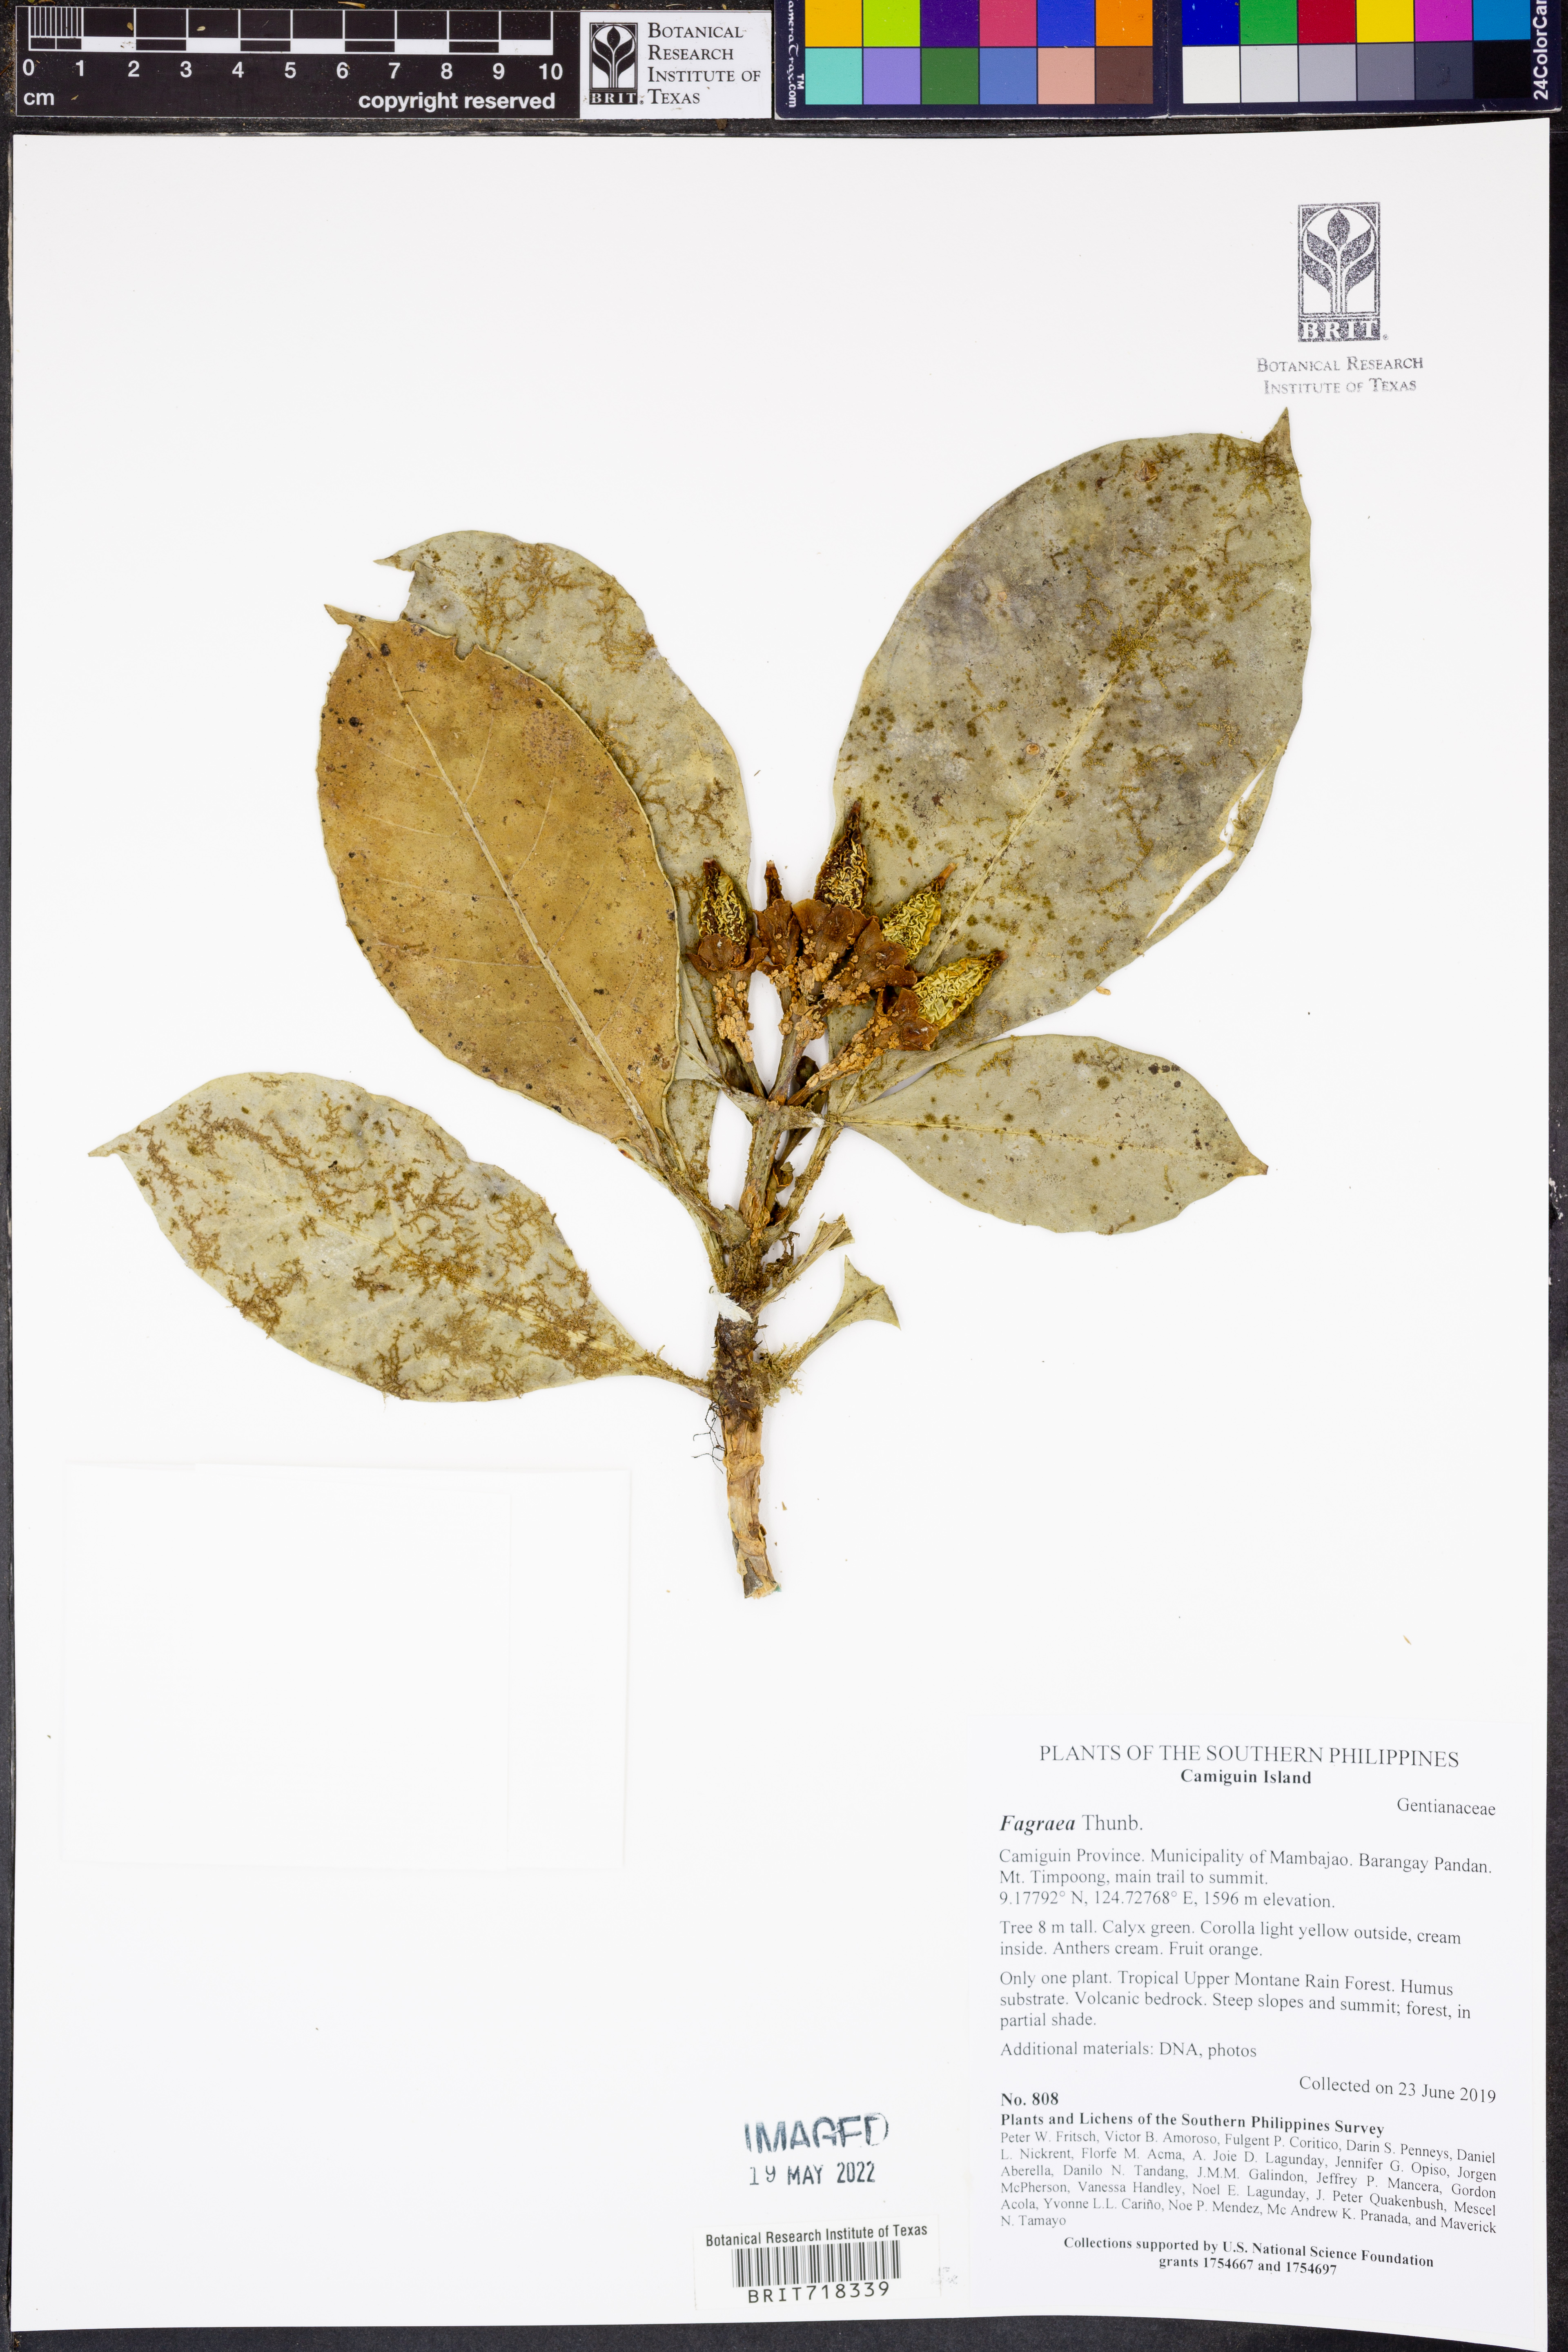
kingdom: Plantae
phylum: Tracheophyta
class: Magnoliopsida
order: Gentianales
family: Gentianaceae
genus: Fagraea
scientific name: Fagraea
